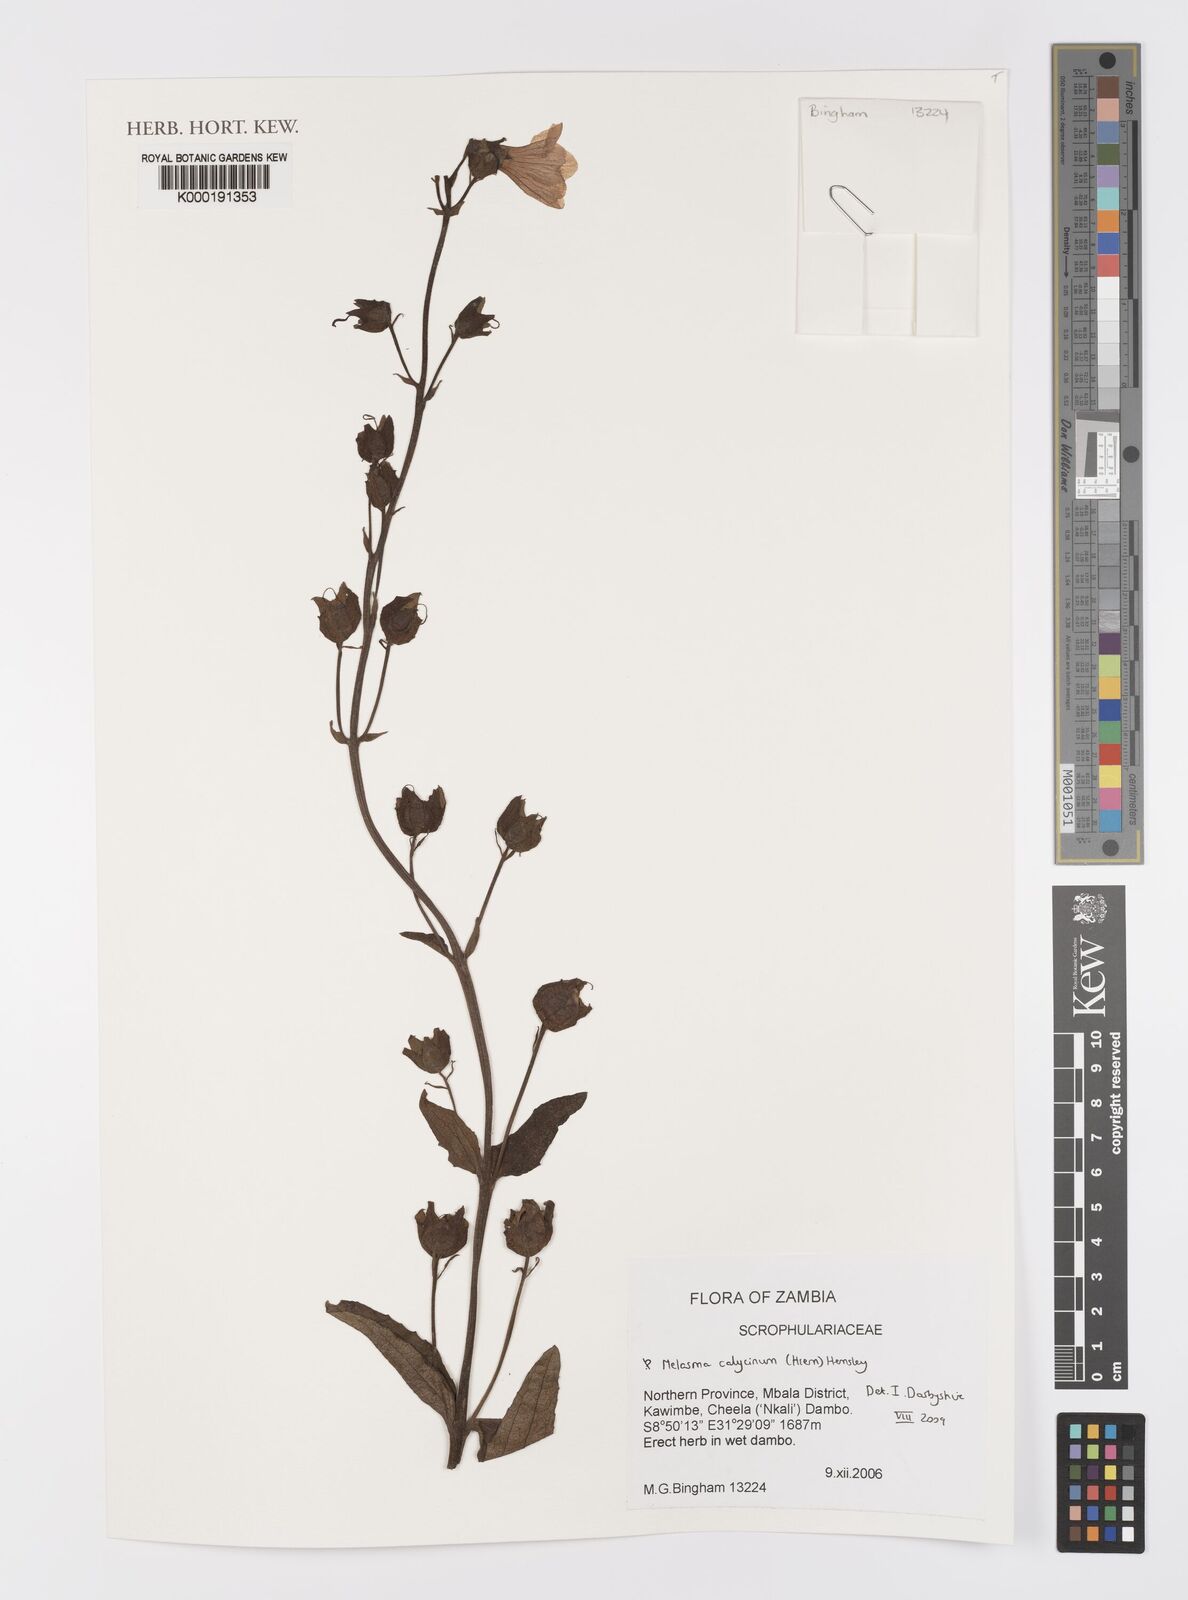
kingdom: Plantae
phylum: Tracheophyta
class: Magnoliopsida
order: Lamiales
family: Orobanchaceae
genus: Melasma
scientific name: Melasma
